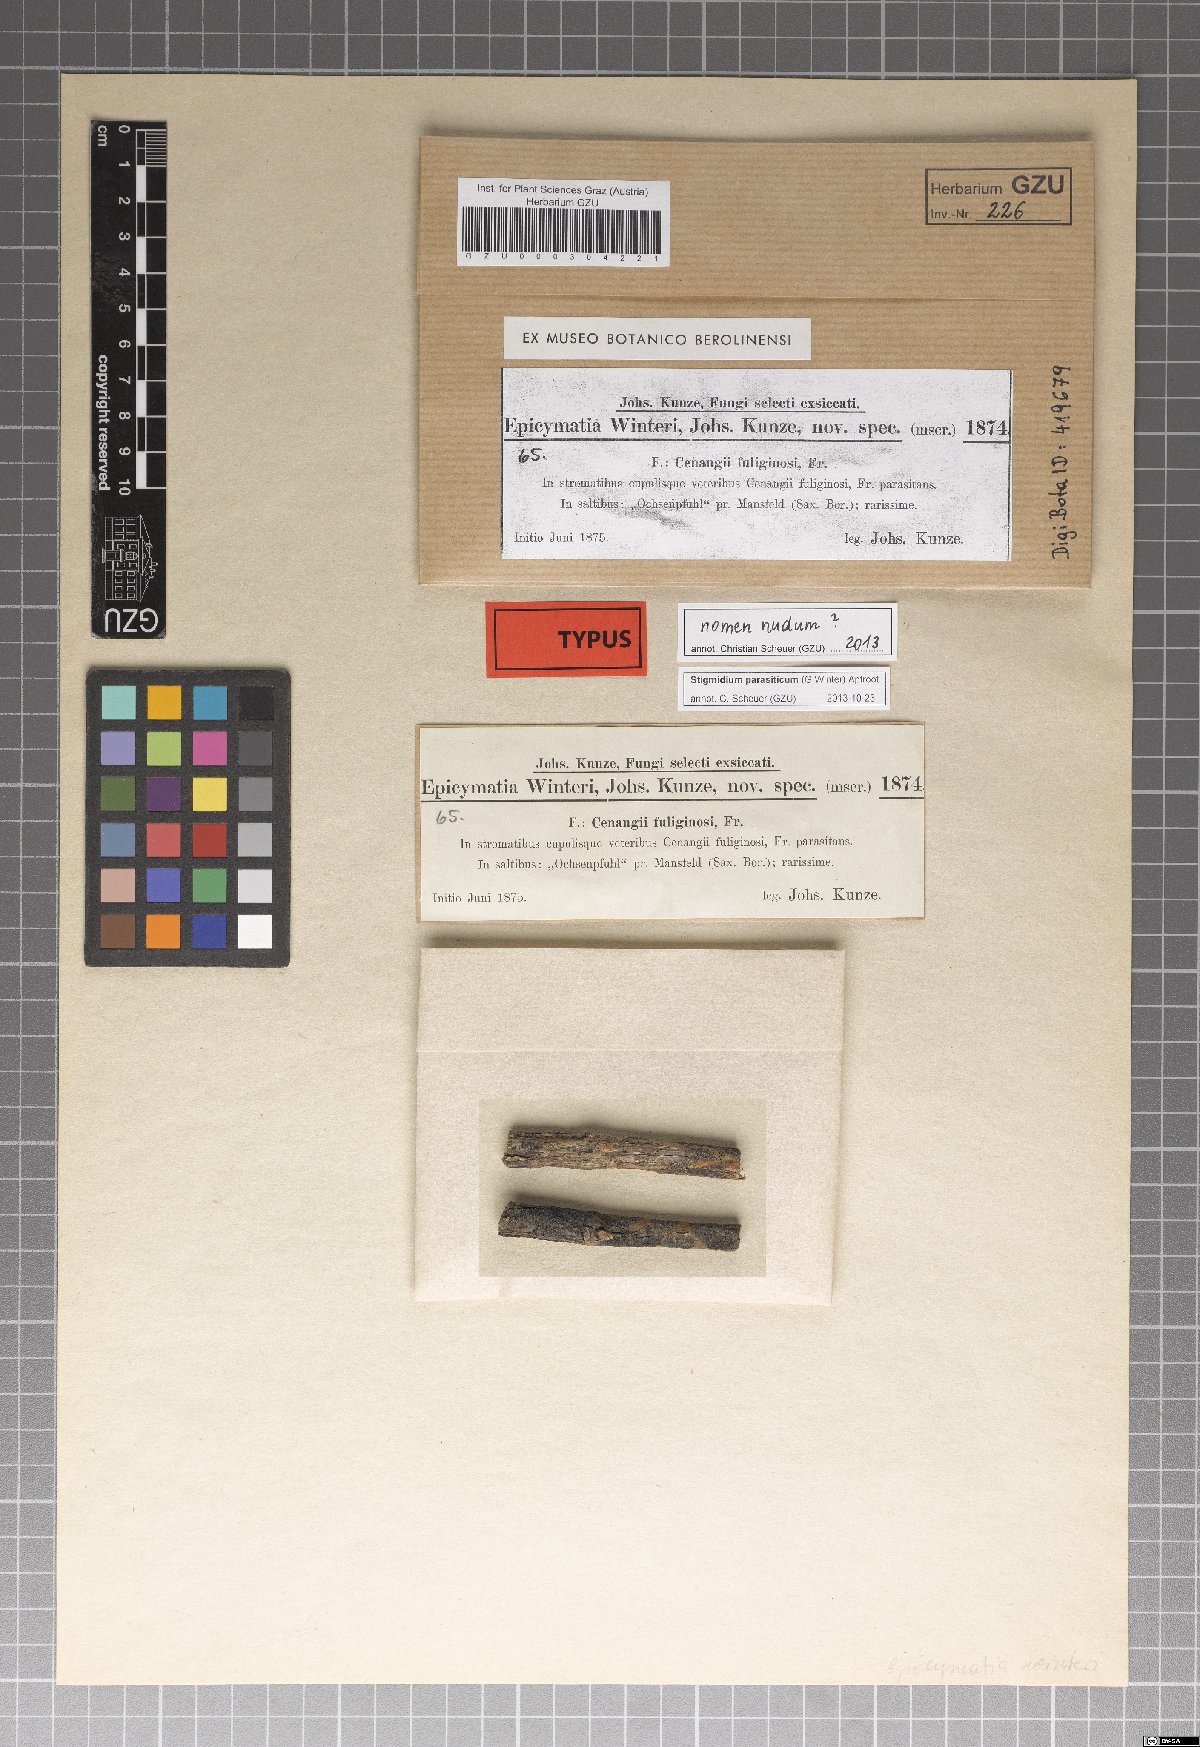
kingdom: Fungi
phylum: Ascomycota
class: Dothideomycetes
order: Mycosphaerellales
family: Mycosphaerellaceae
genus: Stigmidium
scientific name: Stigmidium parasiticum
